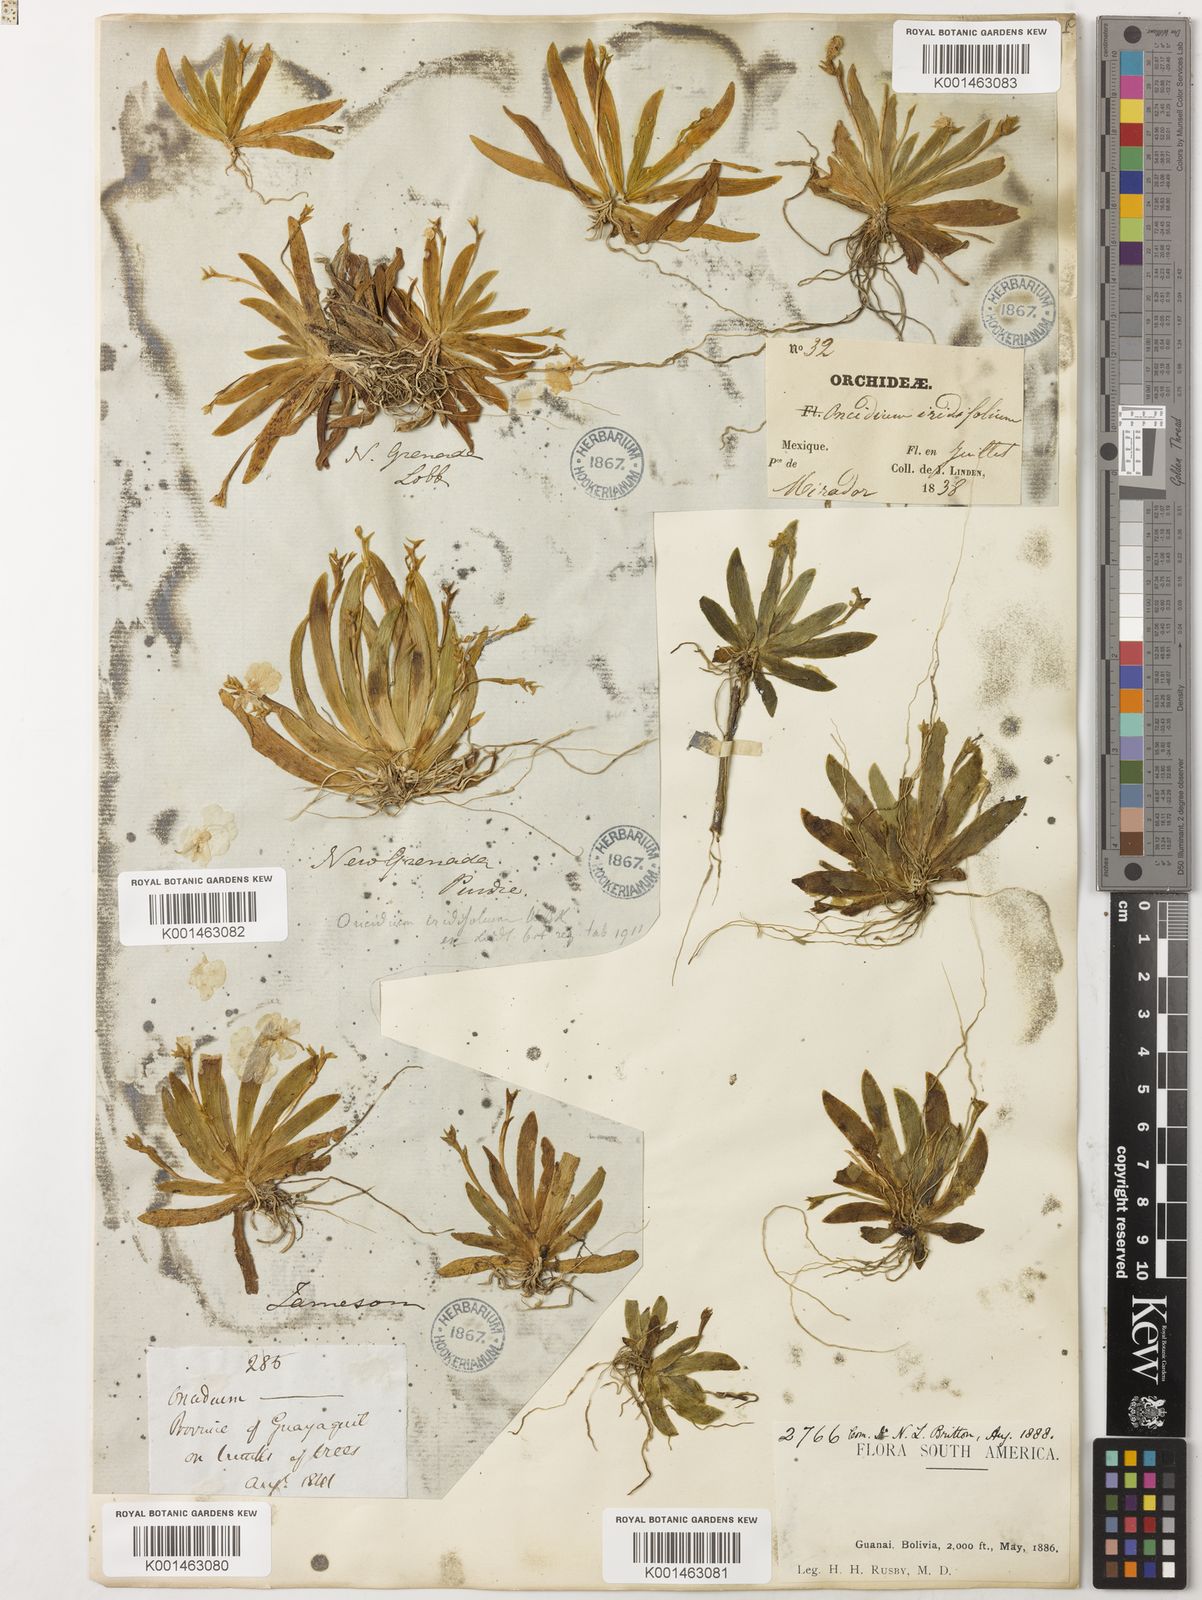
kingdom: Plantae
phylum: Tracheophyta
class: Liliopsida
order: Asparagales
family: Orchidaceae
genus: Erycina
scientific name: Erycina pusilla
